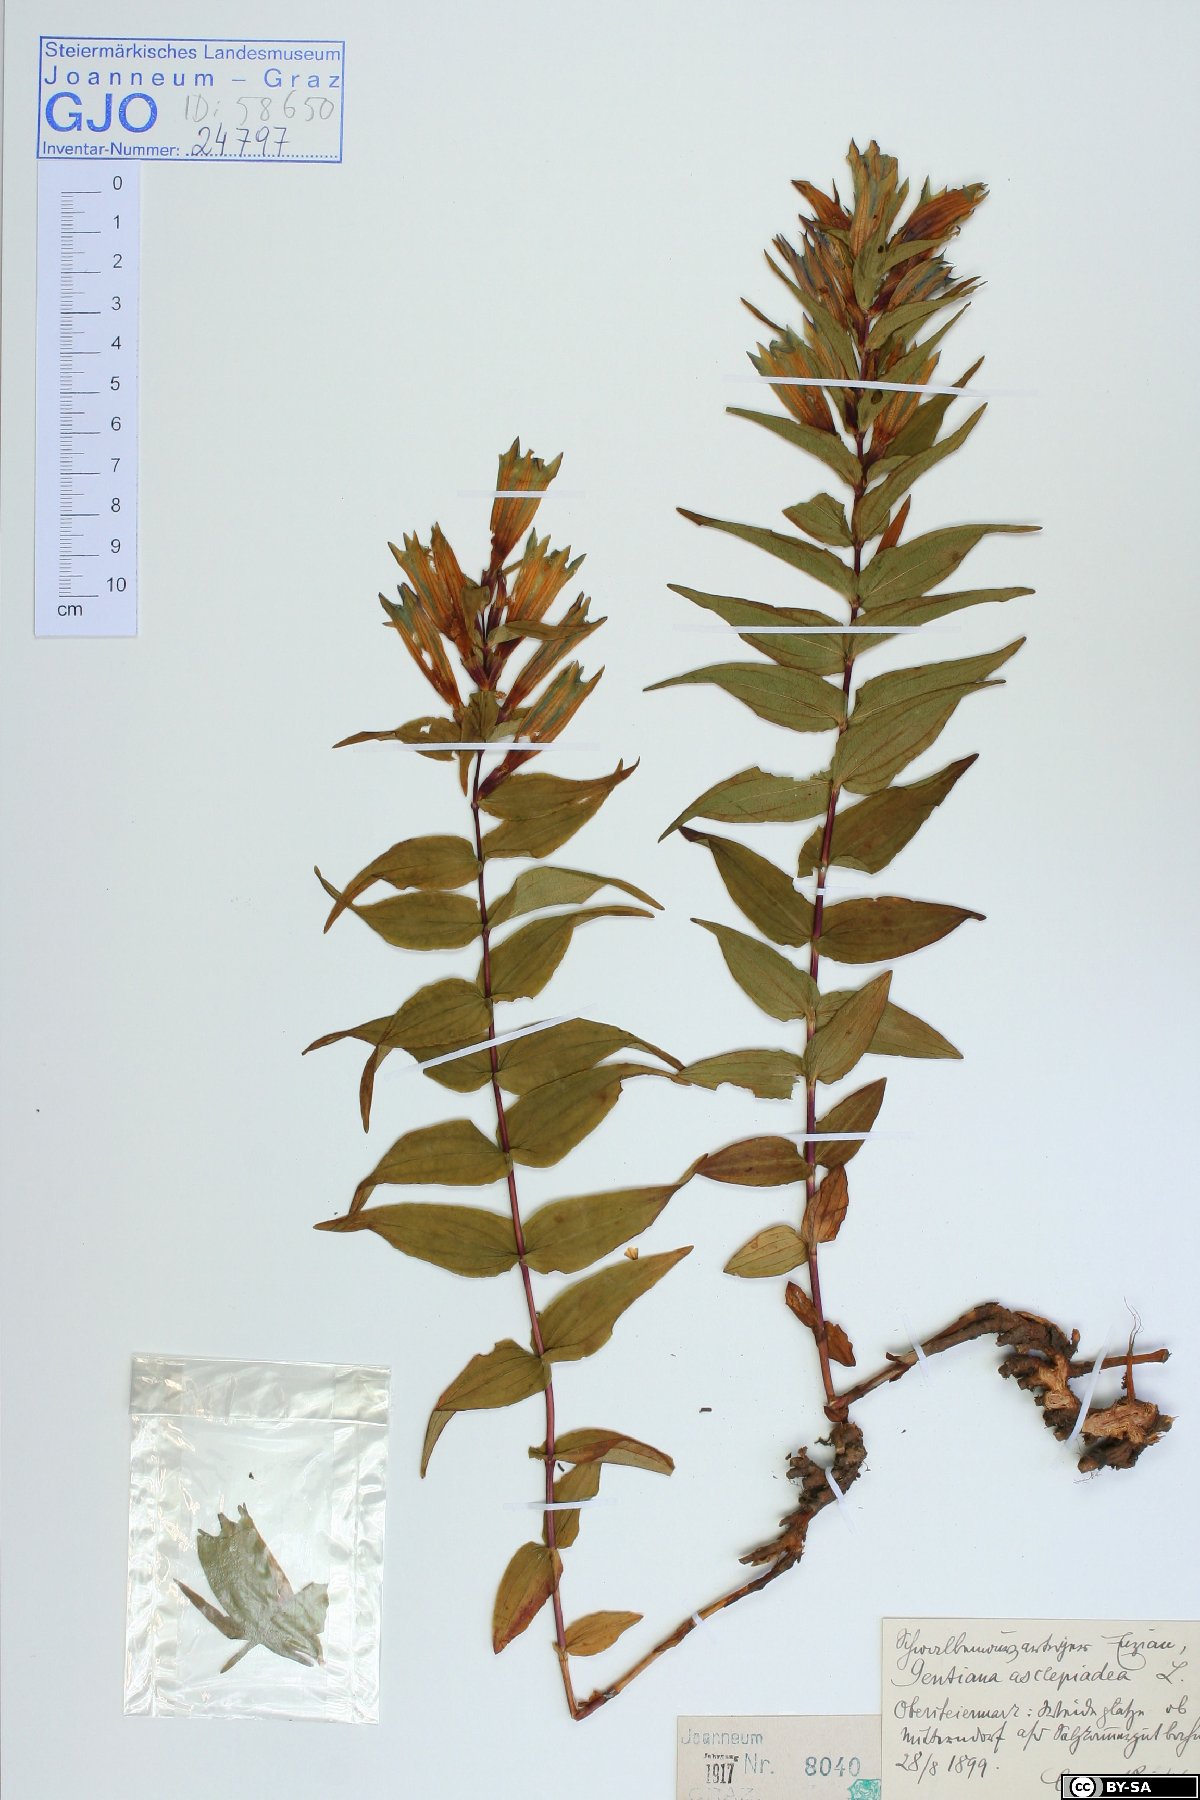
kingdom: Plantae
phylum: Tracheophyta
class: Magnoliopsida
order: Gentianales
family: Gentianaceae
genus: Gentiana
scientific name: Gentiana asclepiadea
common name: Willow gentian
